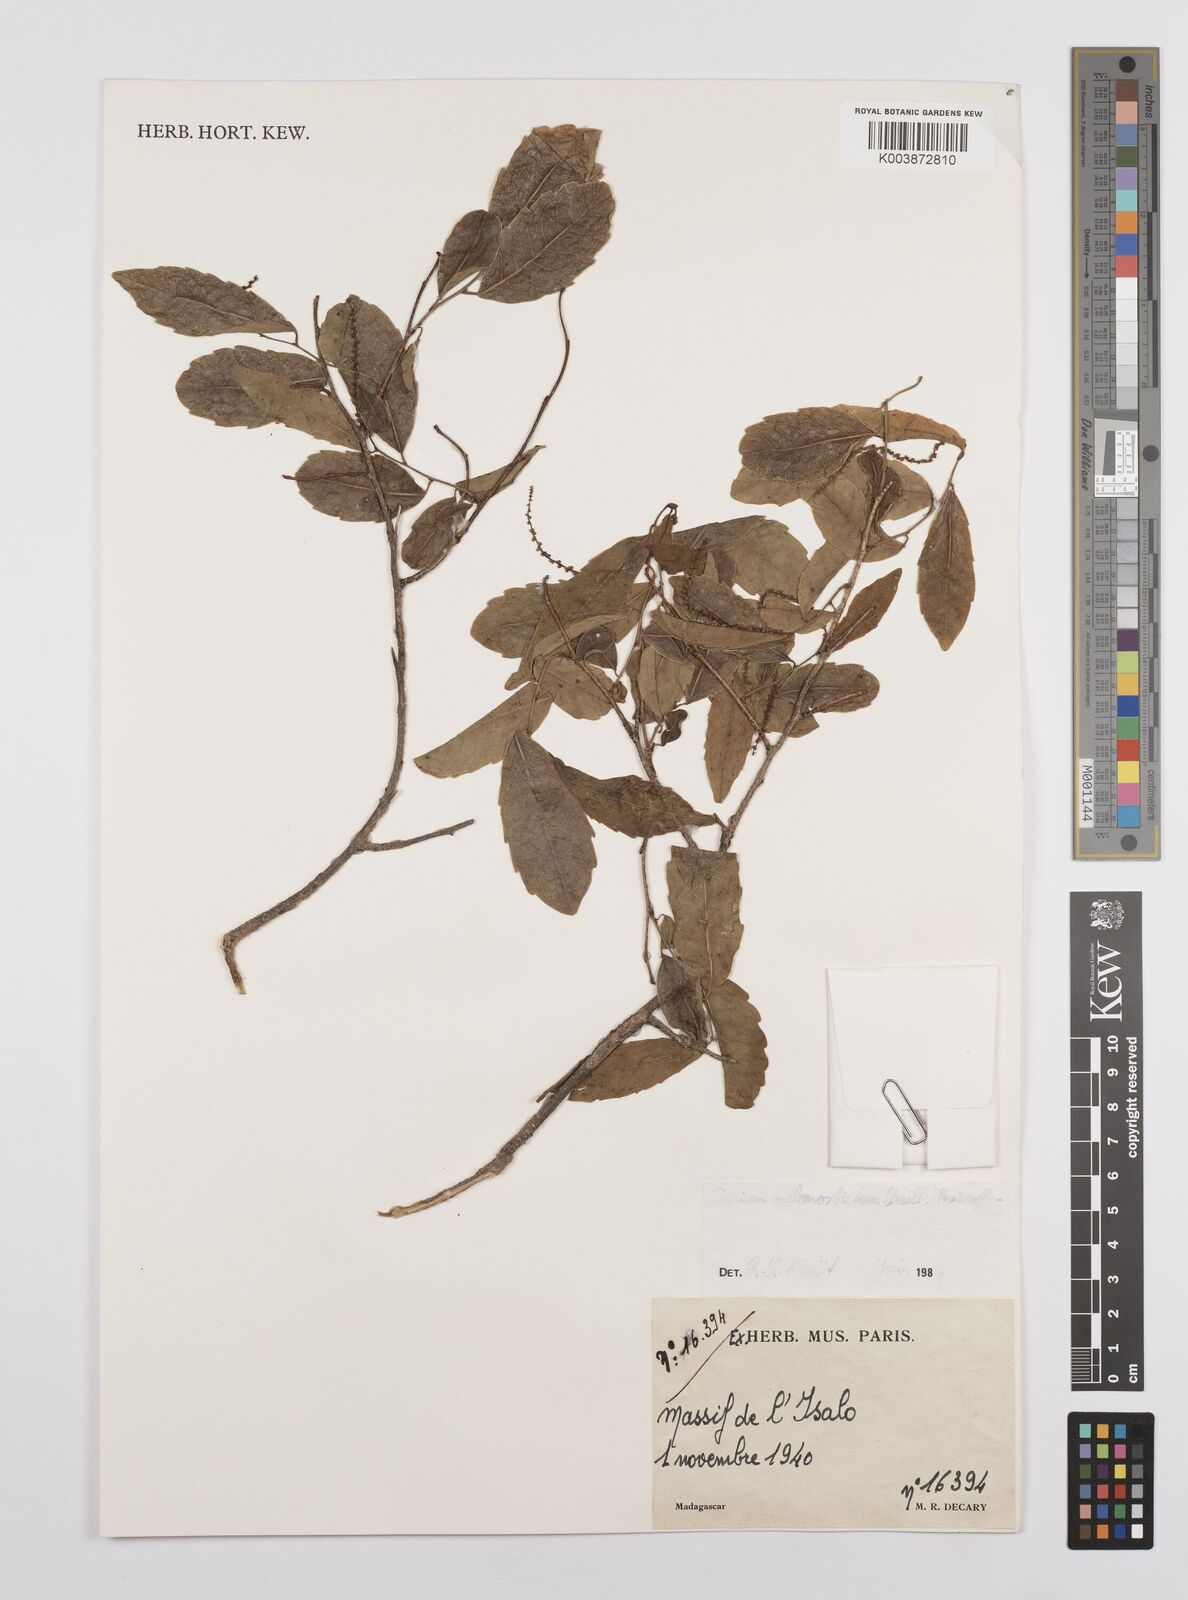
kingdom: Plantae
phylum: Tracheophyta
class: Magnoliopsida
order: Malpighiales
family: Euphorbiaceae
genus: Sclerocroton
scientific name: Sclerocroton melanostictus
